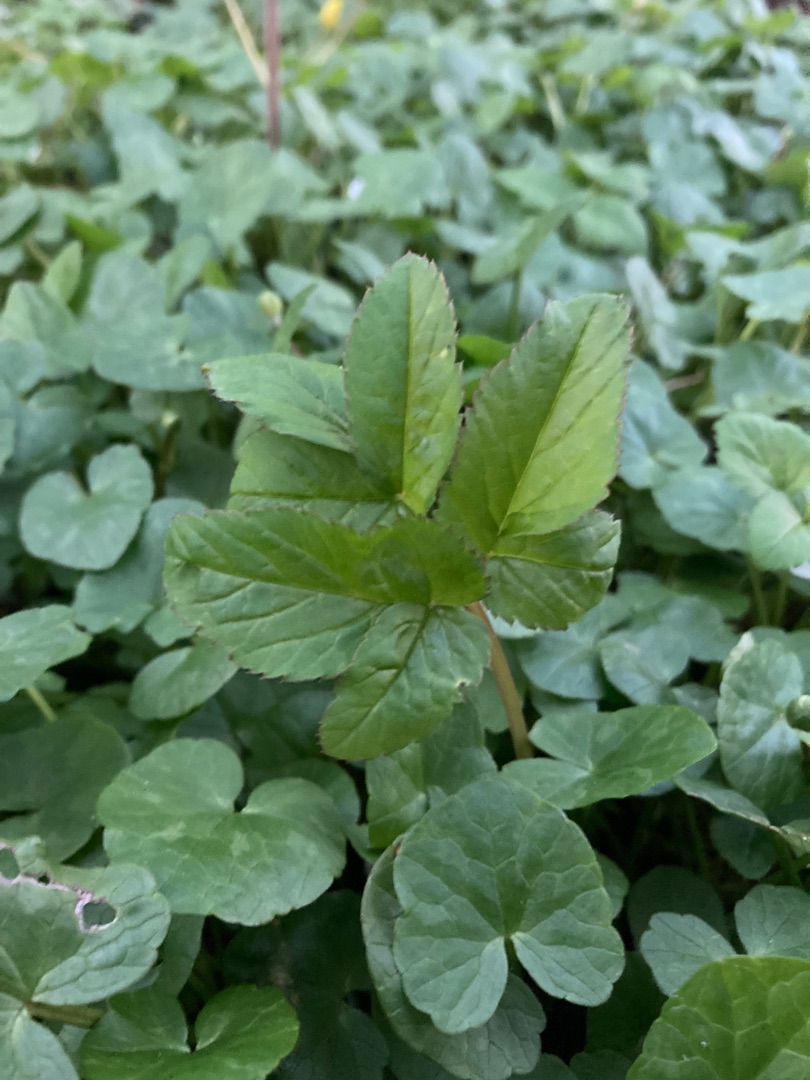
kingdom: Plantae
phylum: Tracheophyta
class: Magnoliopsida
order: Apiales
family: Apiaceae
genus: Aegopodium
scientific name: Aegopodium podagraria
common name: Skvalderkål
